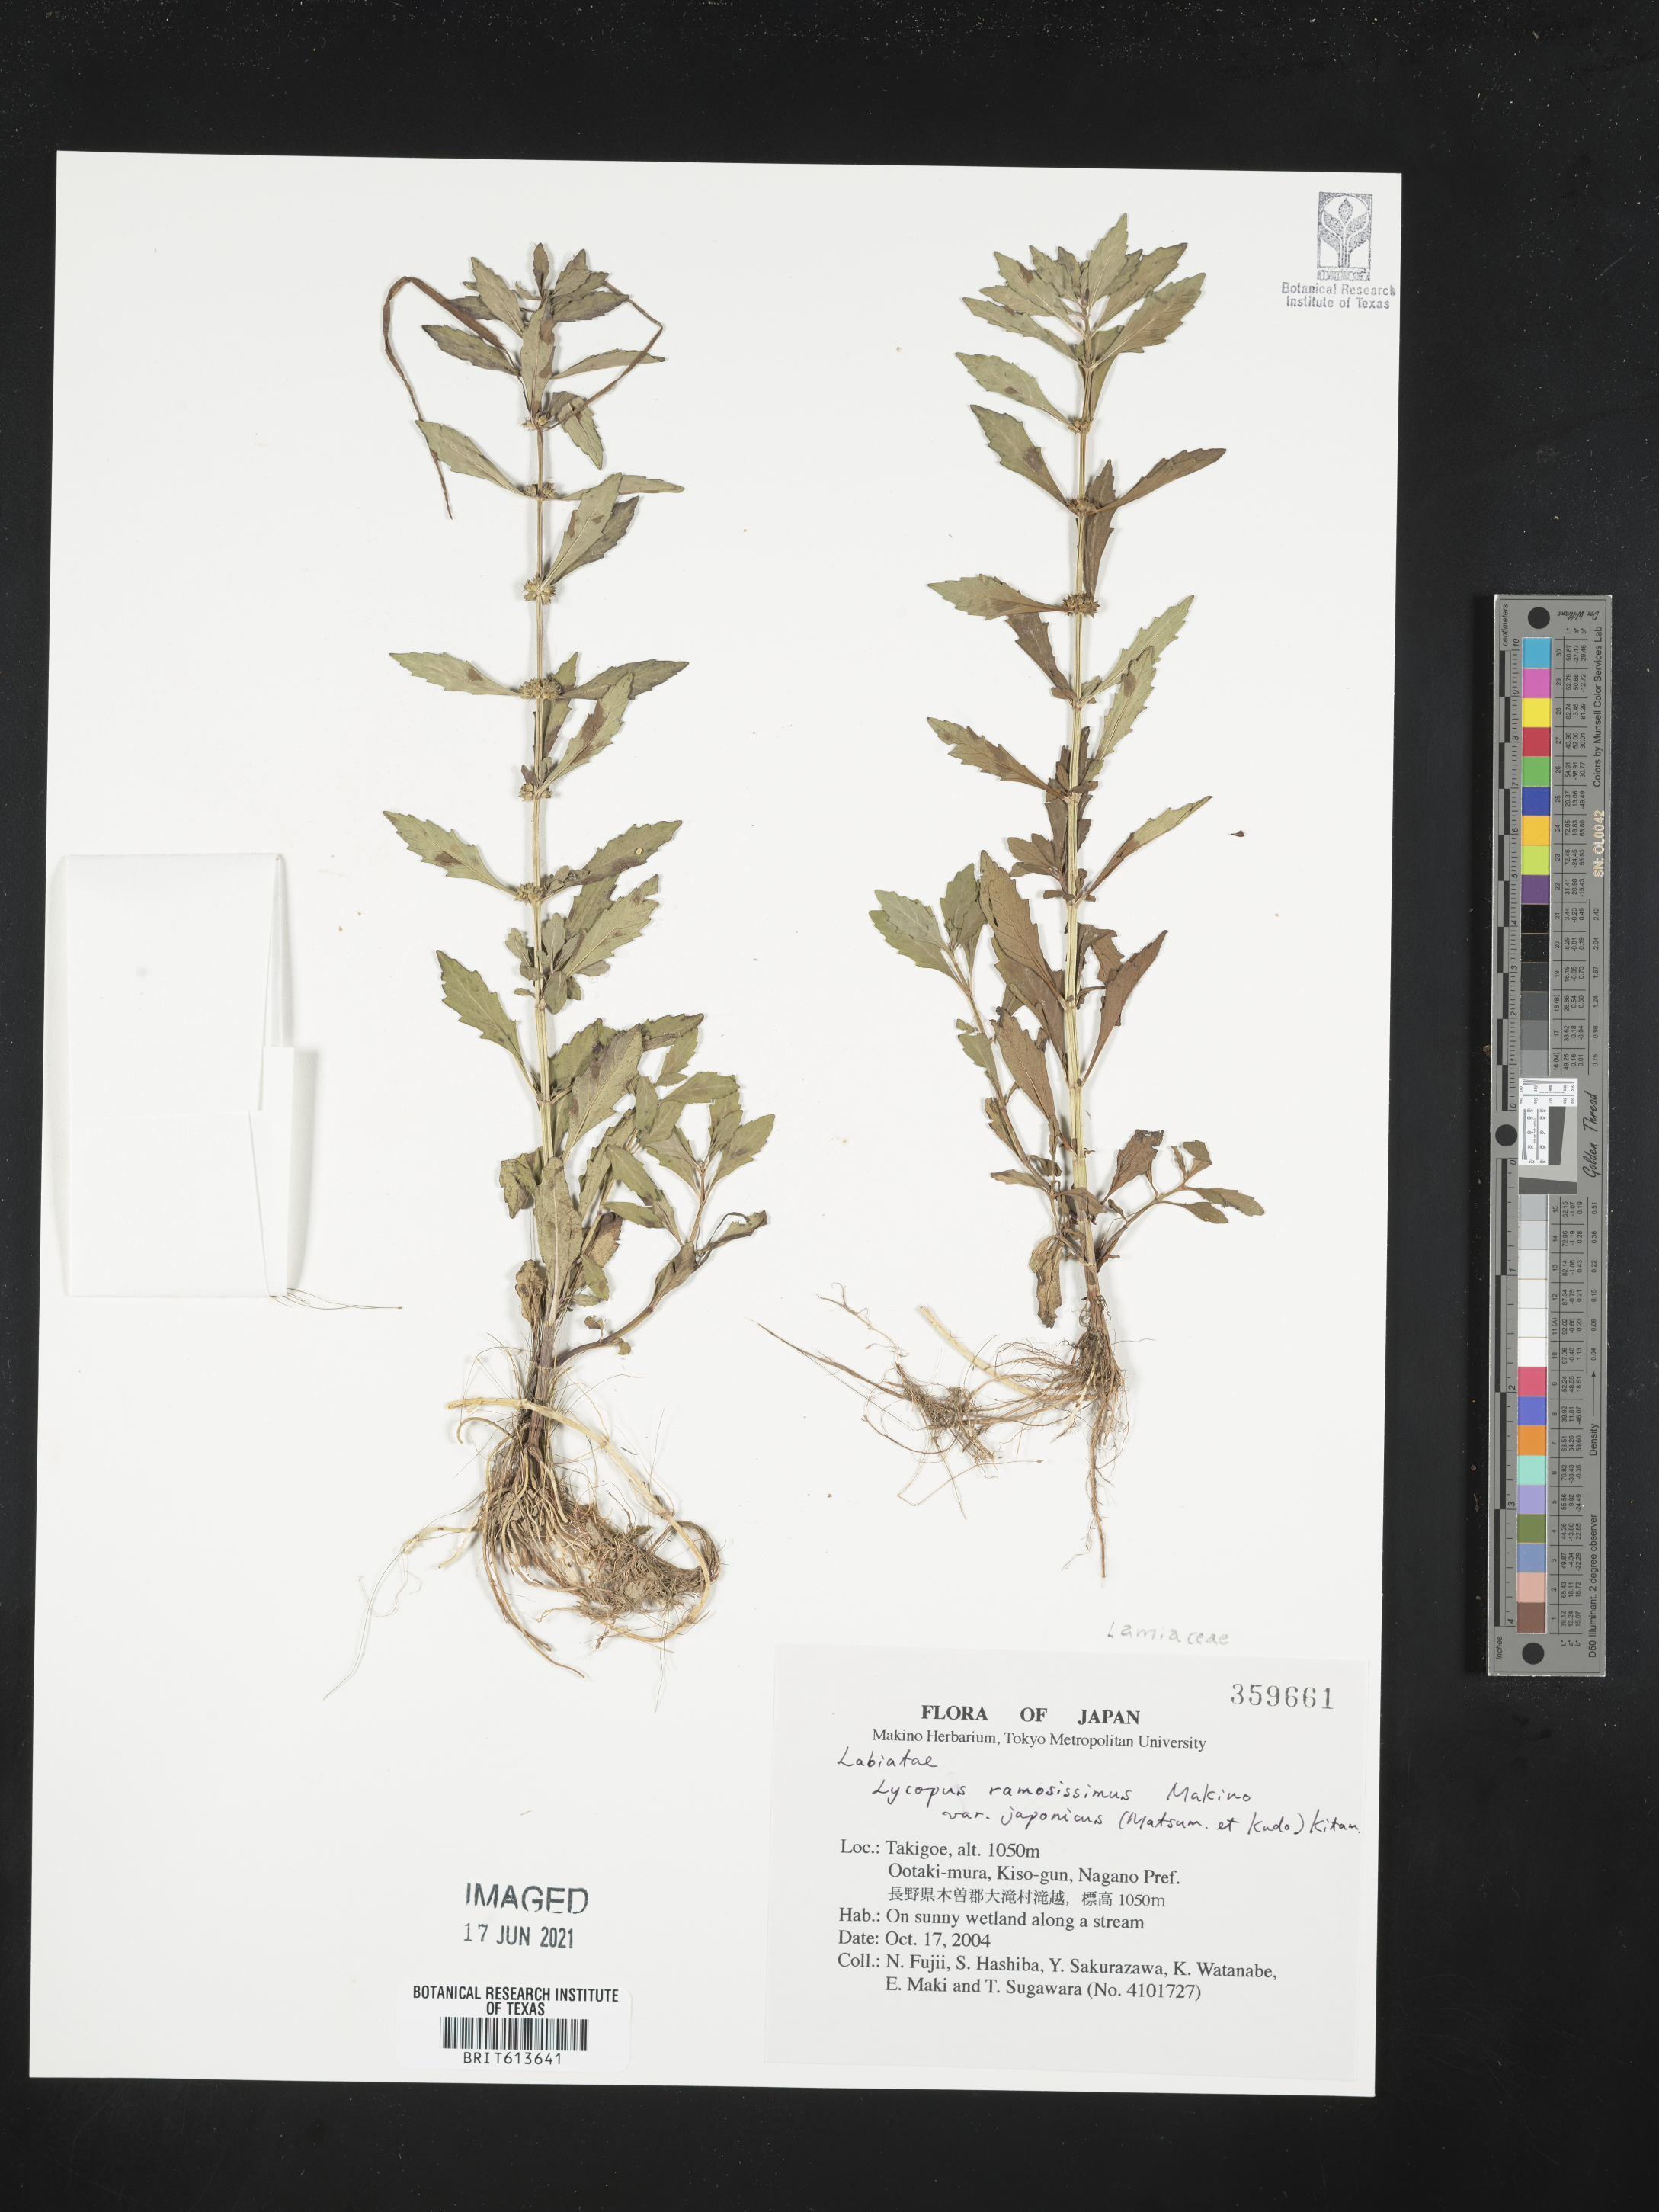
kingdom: Plantae
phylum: Tracheophyta
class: Magnoliopsida
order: Lamiales
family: Lamiaceae
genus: Lycopus
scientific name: Lycopus cavaleriei
